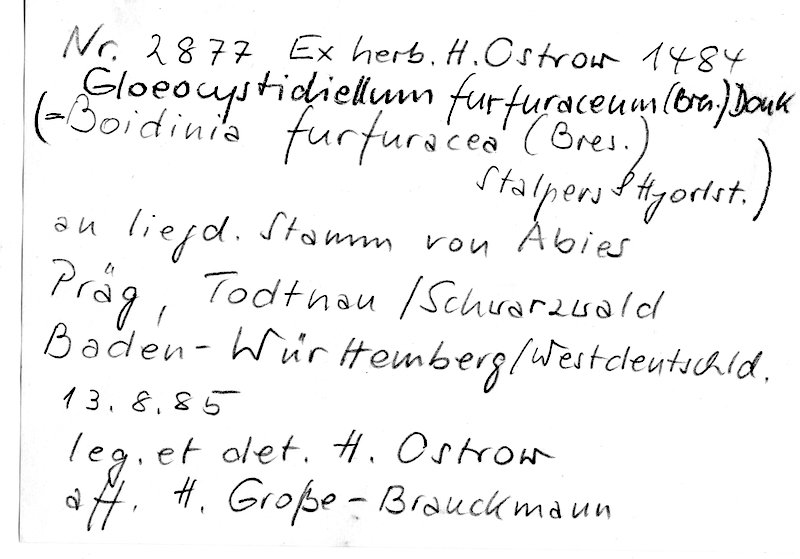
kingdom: Plantae
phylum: Tracheophyta
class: Pinopsida
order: Pinales
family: Pinaceae
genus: Abies
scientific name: Abies
